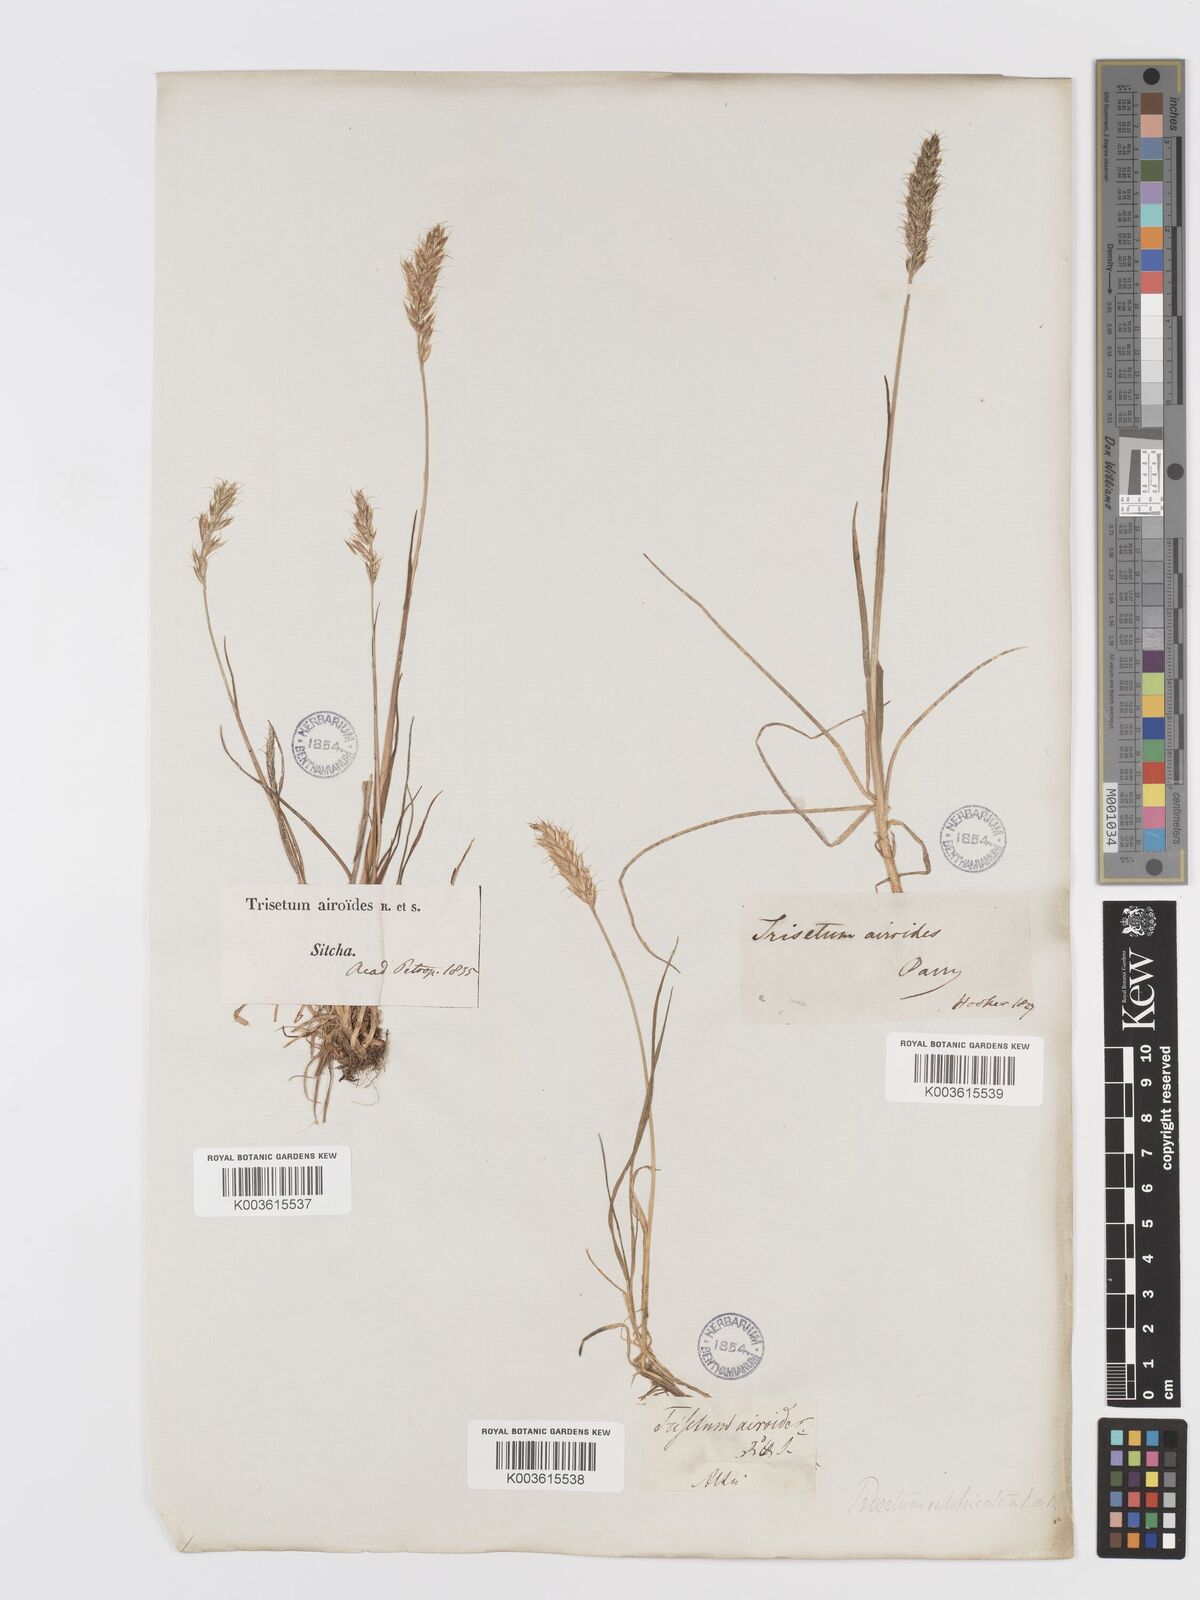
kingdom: Plantae
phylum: Tracheophyta
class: Liliopsida
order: Poales
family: Poaceae
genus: Koeleria
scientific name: Koeleria spicata
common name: Mountain trisetum
